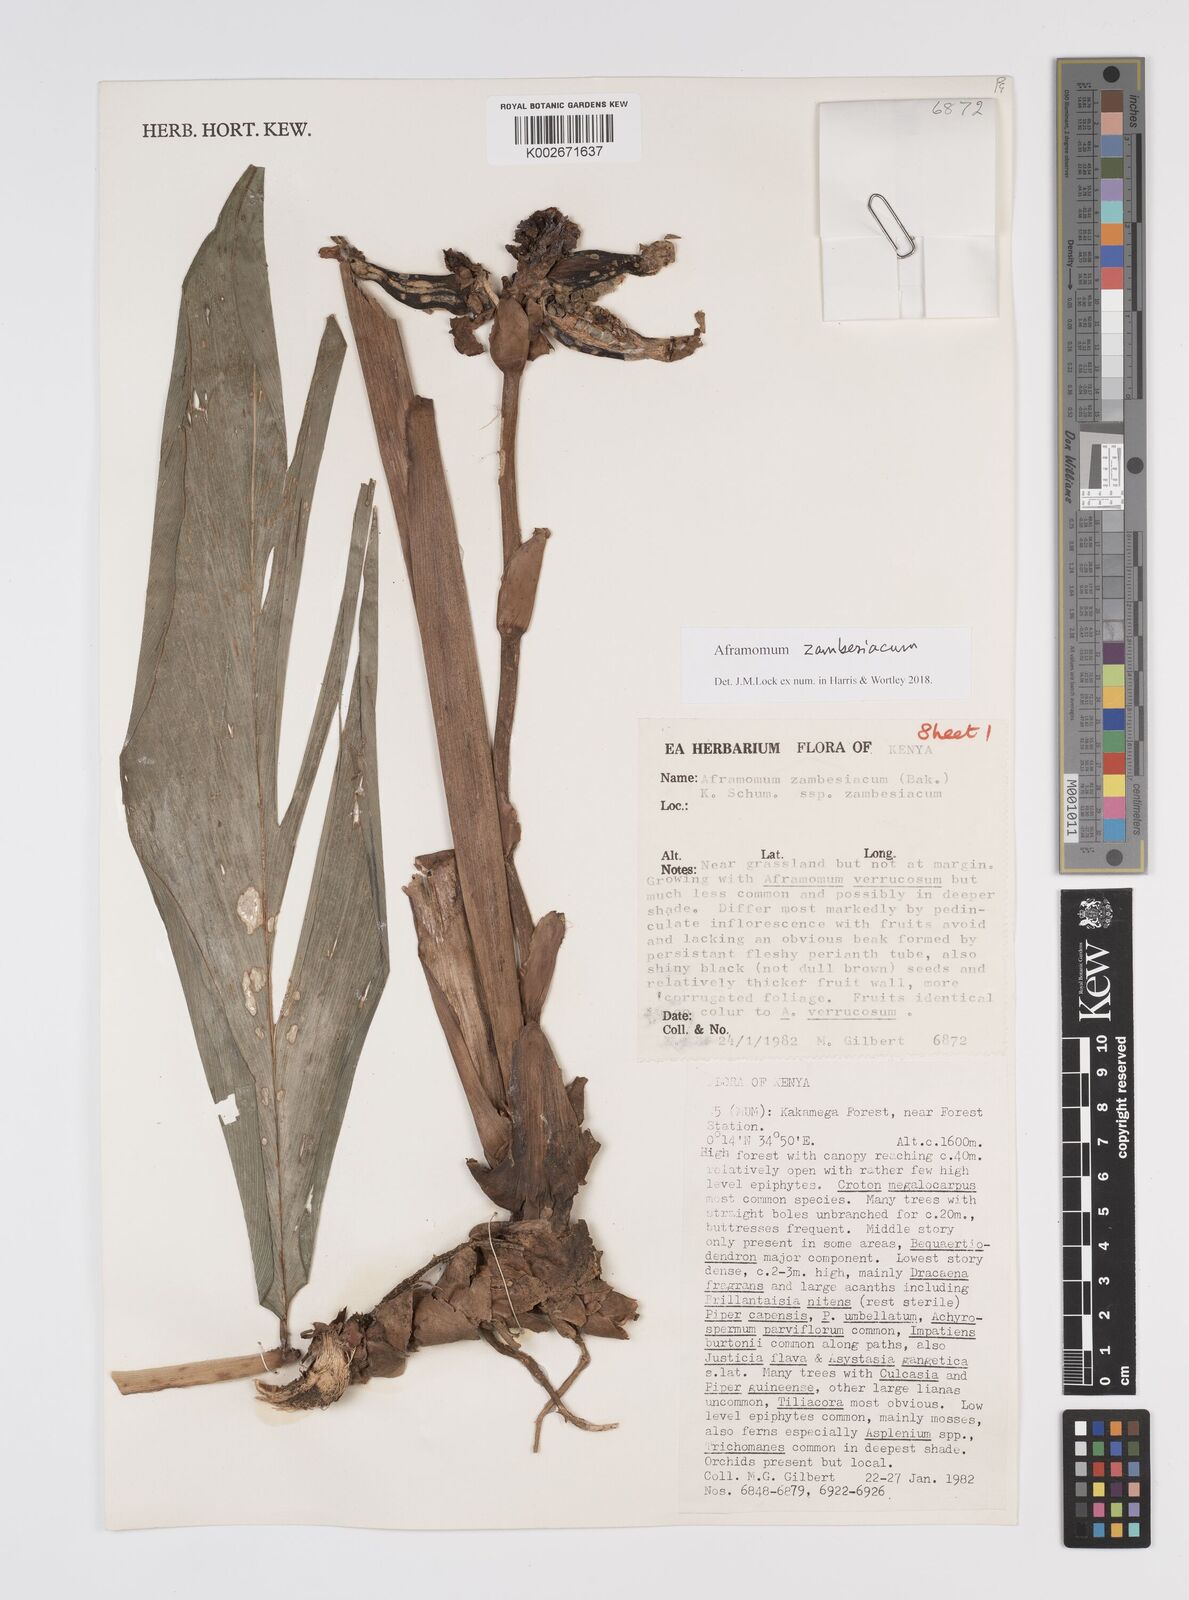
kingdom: Plantae
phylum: Tracheophyta
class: Liliopsida
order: Zingiberales
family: Zingiberaceae
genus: Aframomum
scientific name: Aframomum zambesiacum
